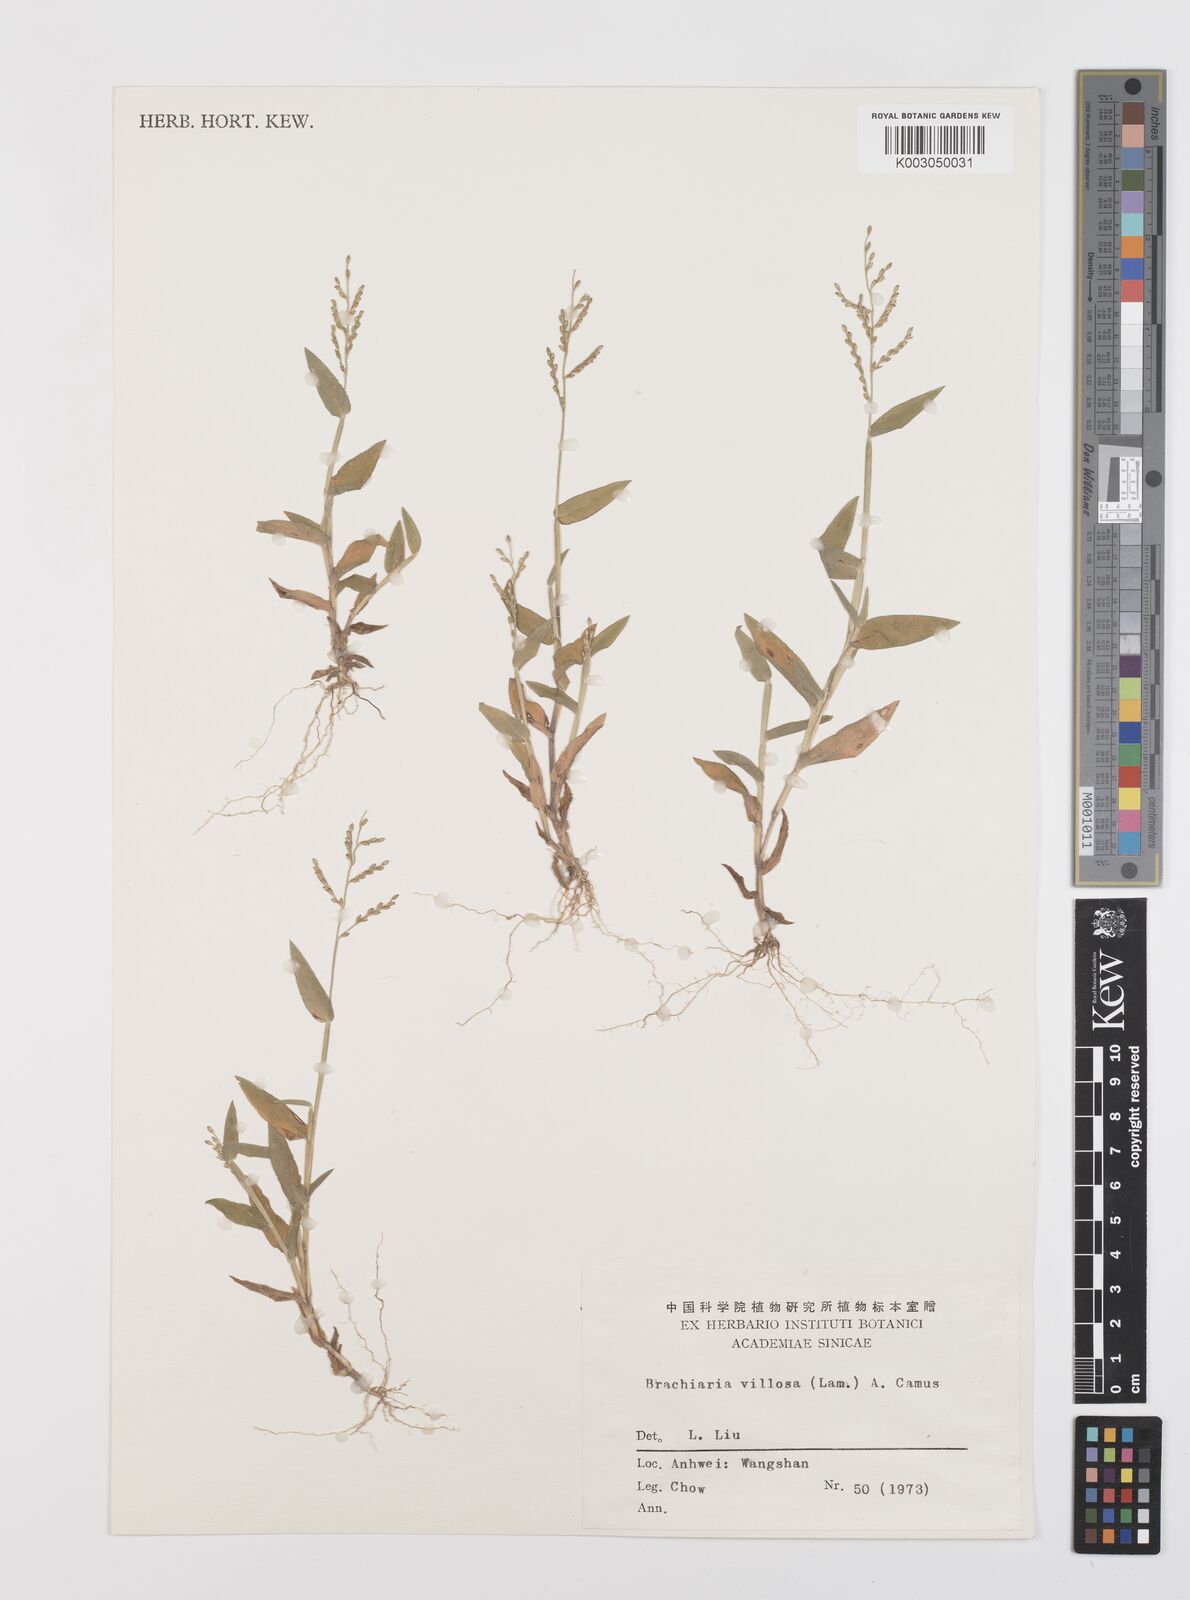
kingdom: Plantae
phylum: Tracheophyta
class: Liliopsida
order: Poales
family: Poaceae
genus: Urochloa
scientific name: Urochloa villosa
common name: Hairy signalgrass
